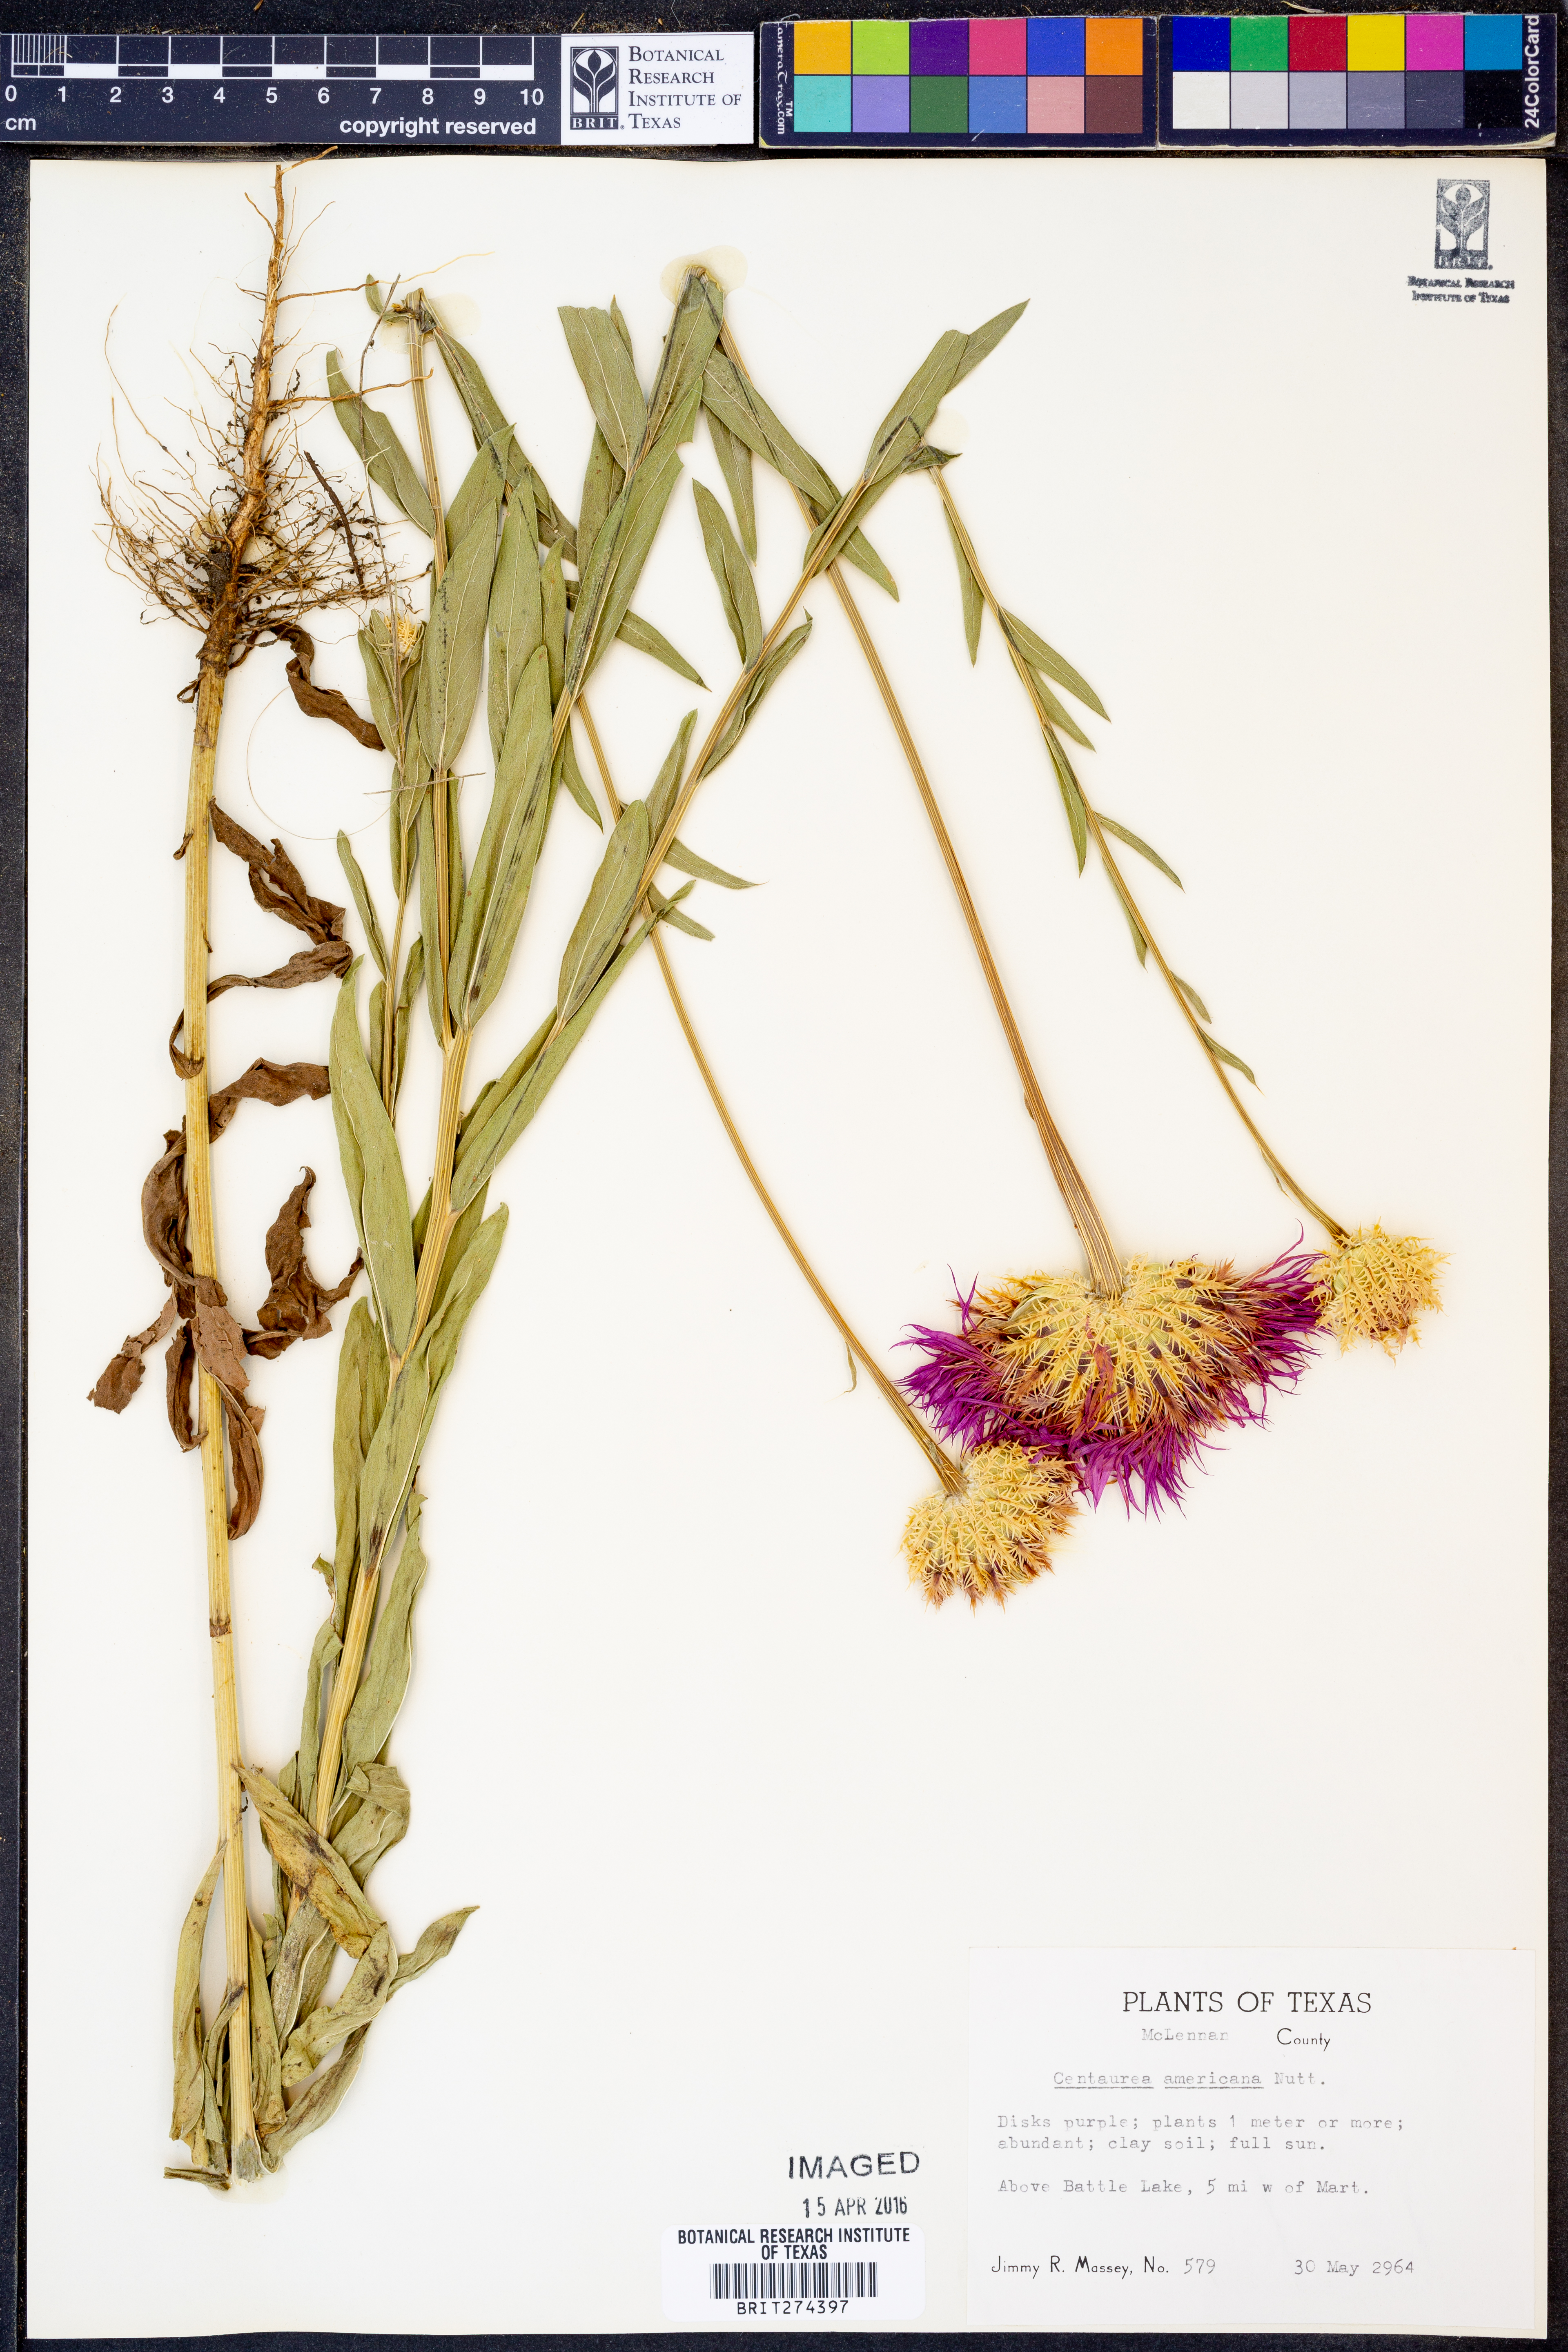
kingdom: Plantae
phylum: Tracheophyta
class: Magnoliopsida
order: Asterales
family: Asteraceae
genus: Plectocephalus
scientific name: Plectocephalus americanus
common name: American basket-flower
